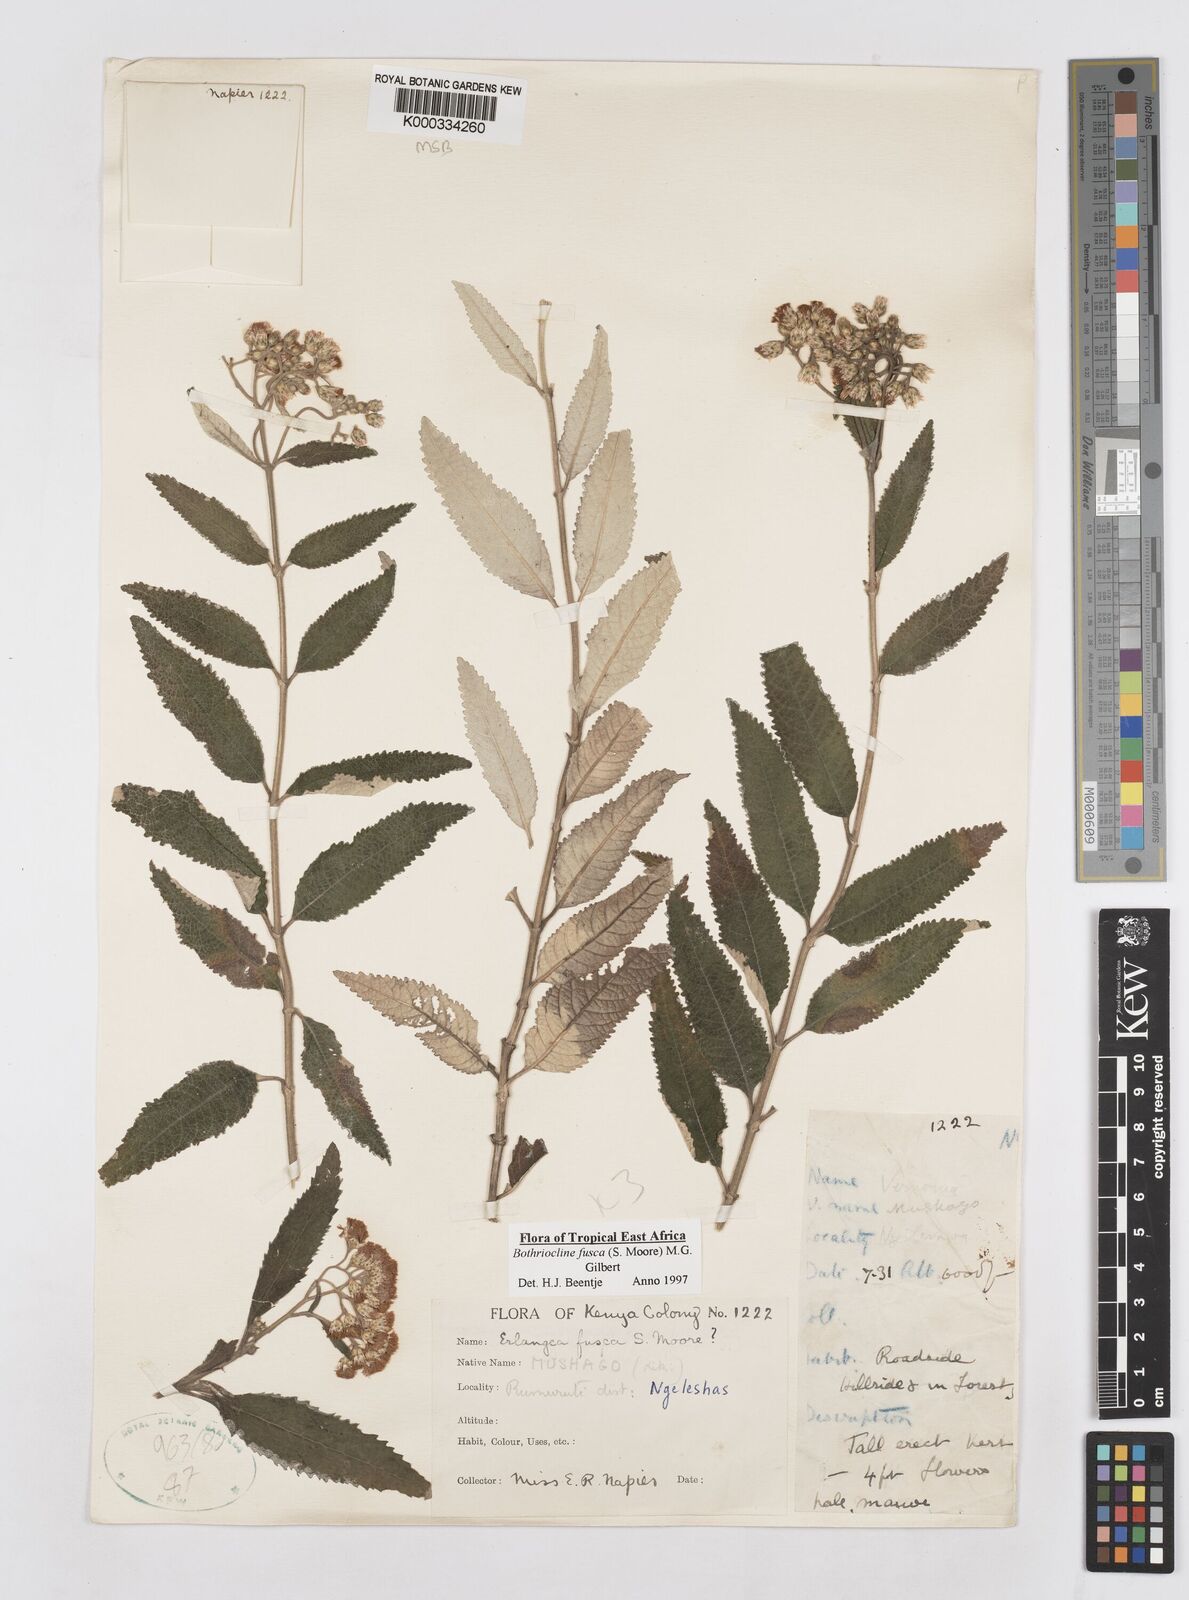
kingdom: Plantae
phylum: Tracheophyta
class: Magnoliopsida
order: Asterales
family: Asteraceae
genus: Bothriocline
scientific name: Bothriocline fusca
